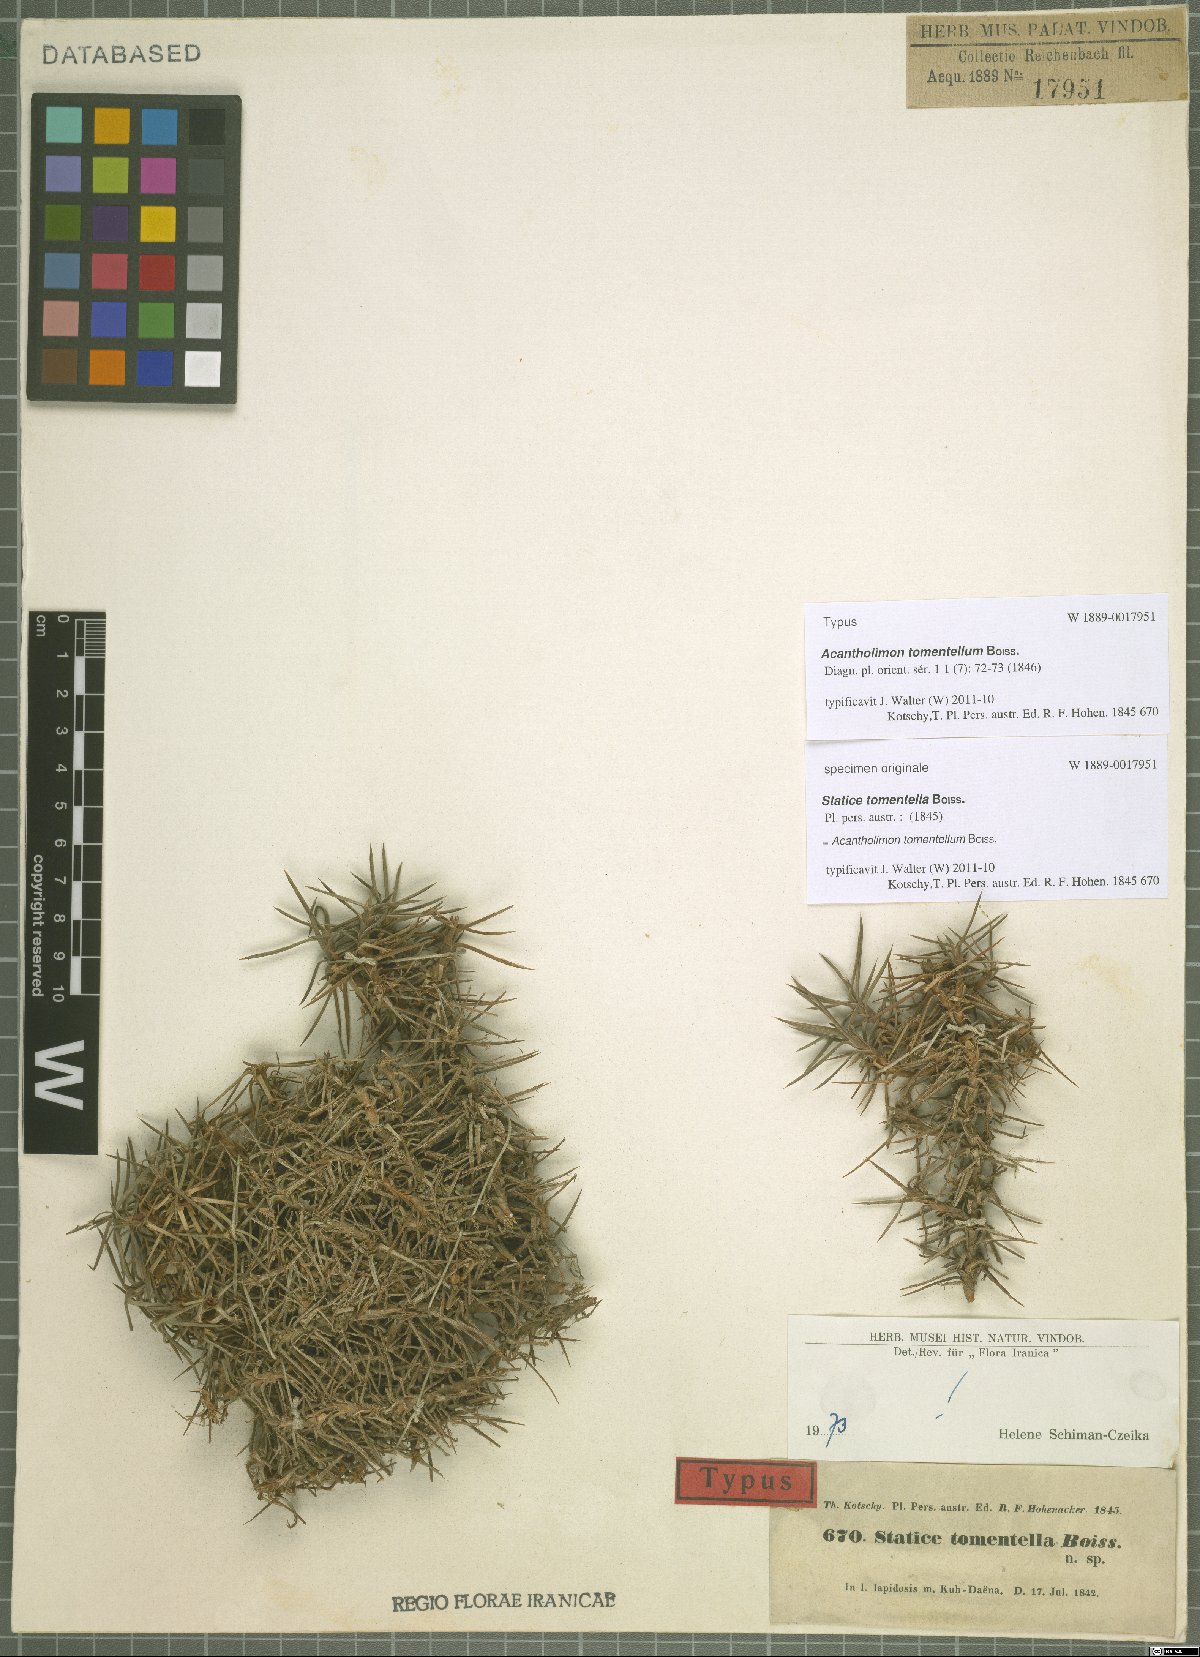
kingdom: Plantae
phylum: Tracheophyta
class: Magnoliopsida
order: Caryophyllales
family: Plumbaginaceae
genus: Acantholimon
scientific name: Acantholimon tomentellum
